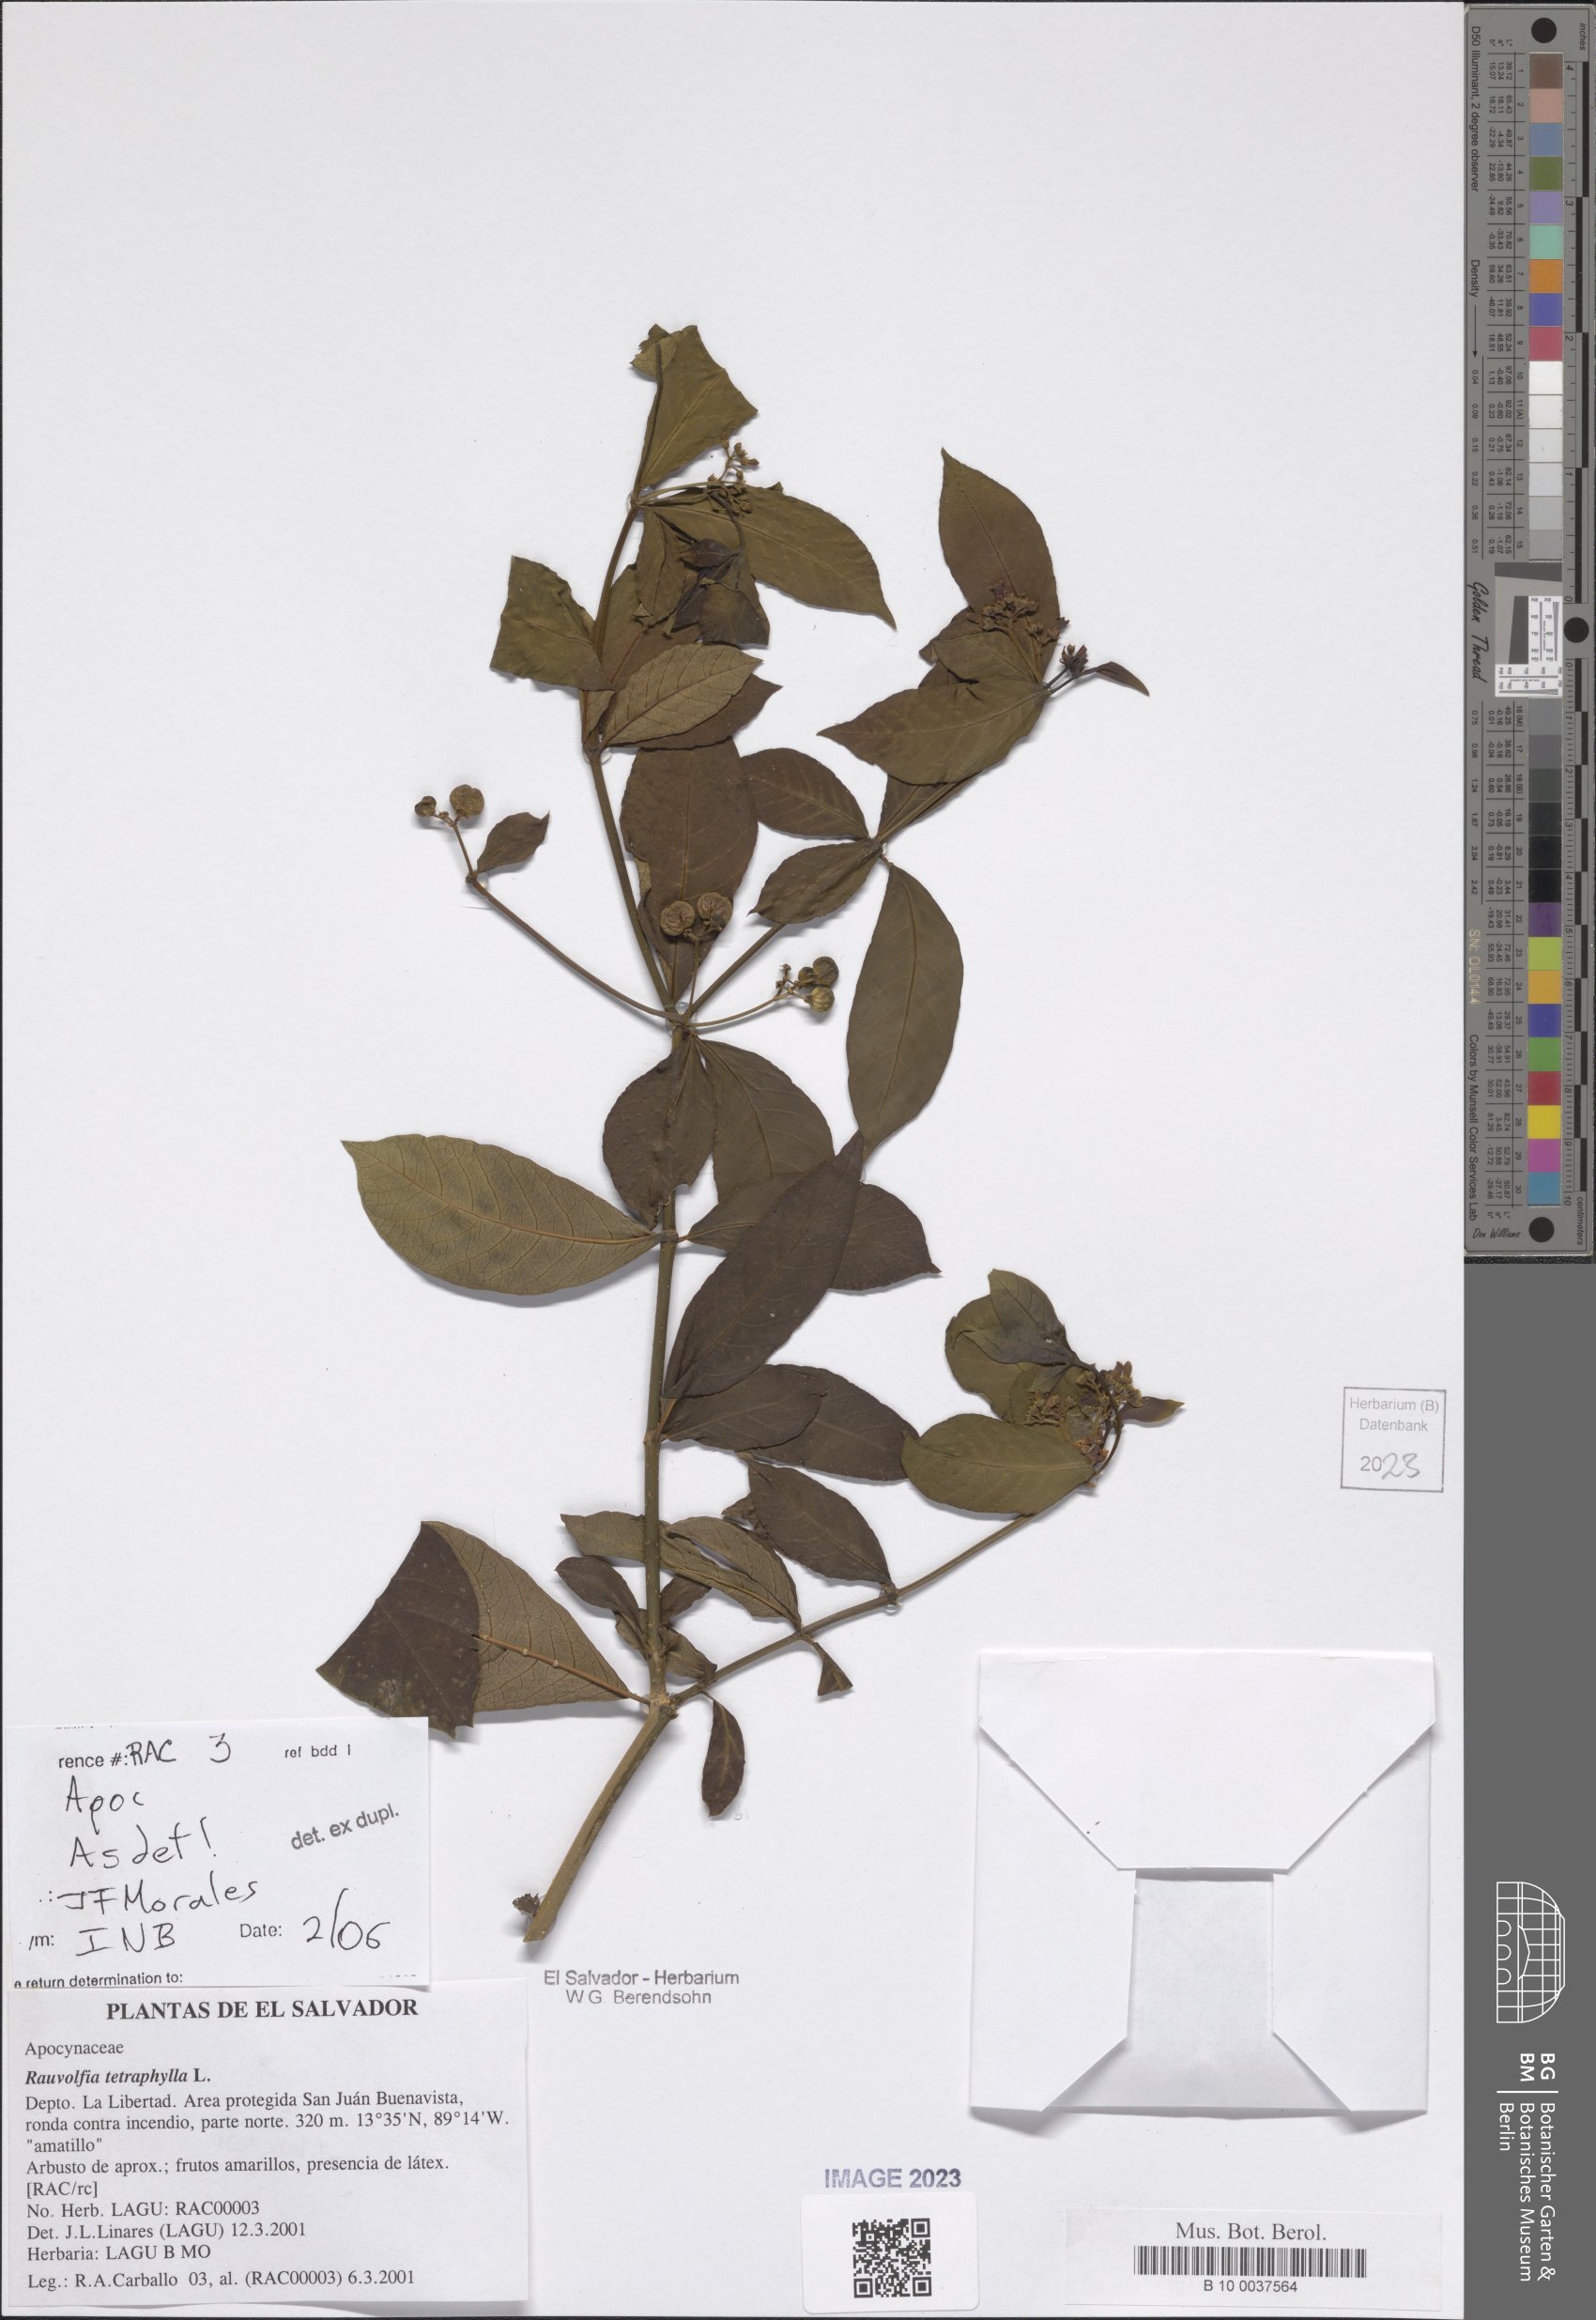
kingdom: Plantae
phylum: Tracheophyta
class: Magnoliopsida
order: Gentianales
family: Apocynaceae
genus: Rauvolfia
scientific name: Rauvolfia tetraphylla
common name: Four-leaf devil-pepper
